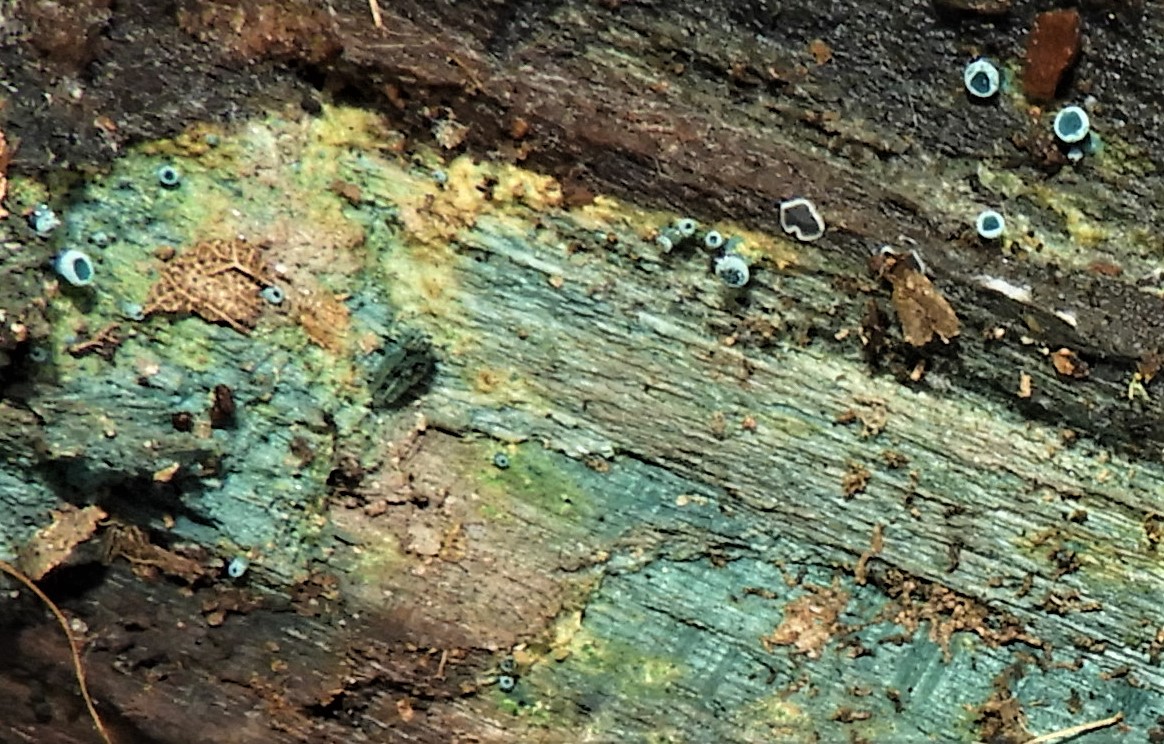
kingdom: Fungi
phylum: Ascomycota
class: Leotiomycetes
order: Helotiales
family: Chlorociboriaceae
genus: Chlorociboria
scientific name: Chlorociboria aeruginascens
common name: almindelig grønskive
